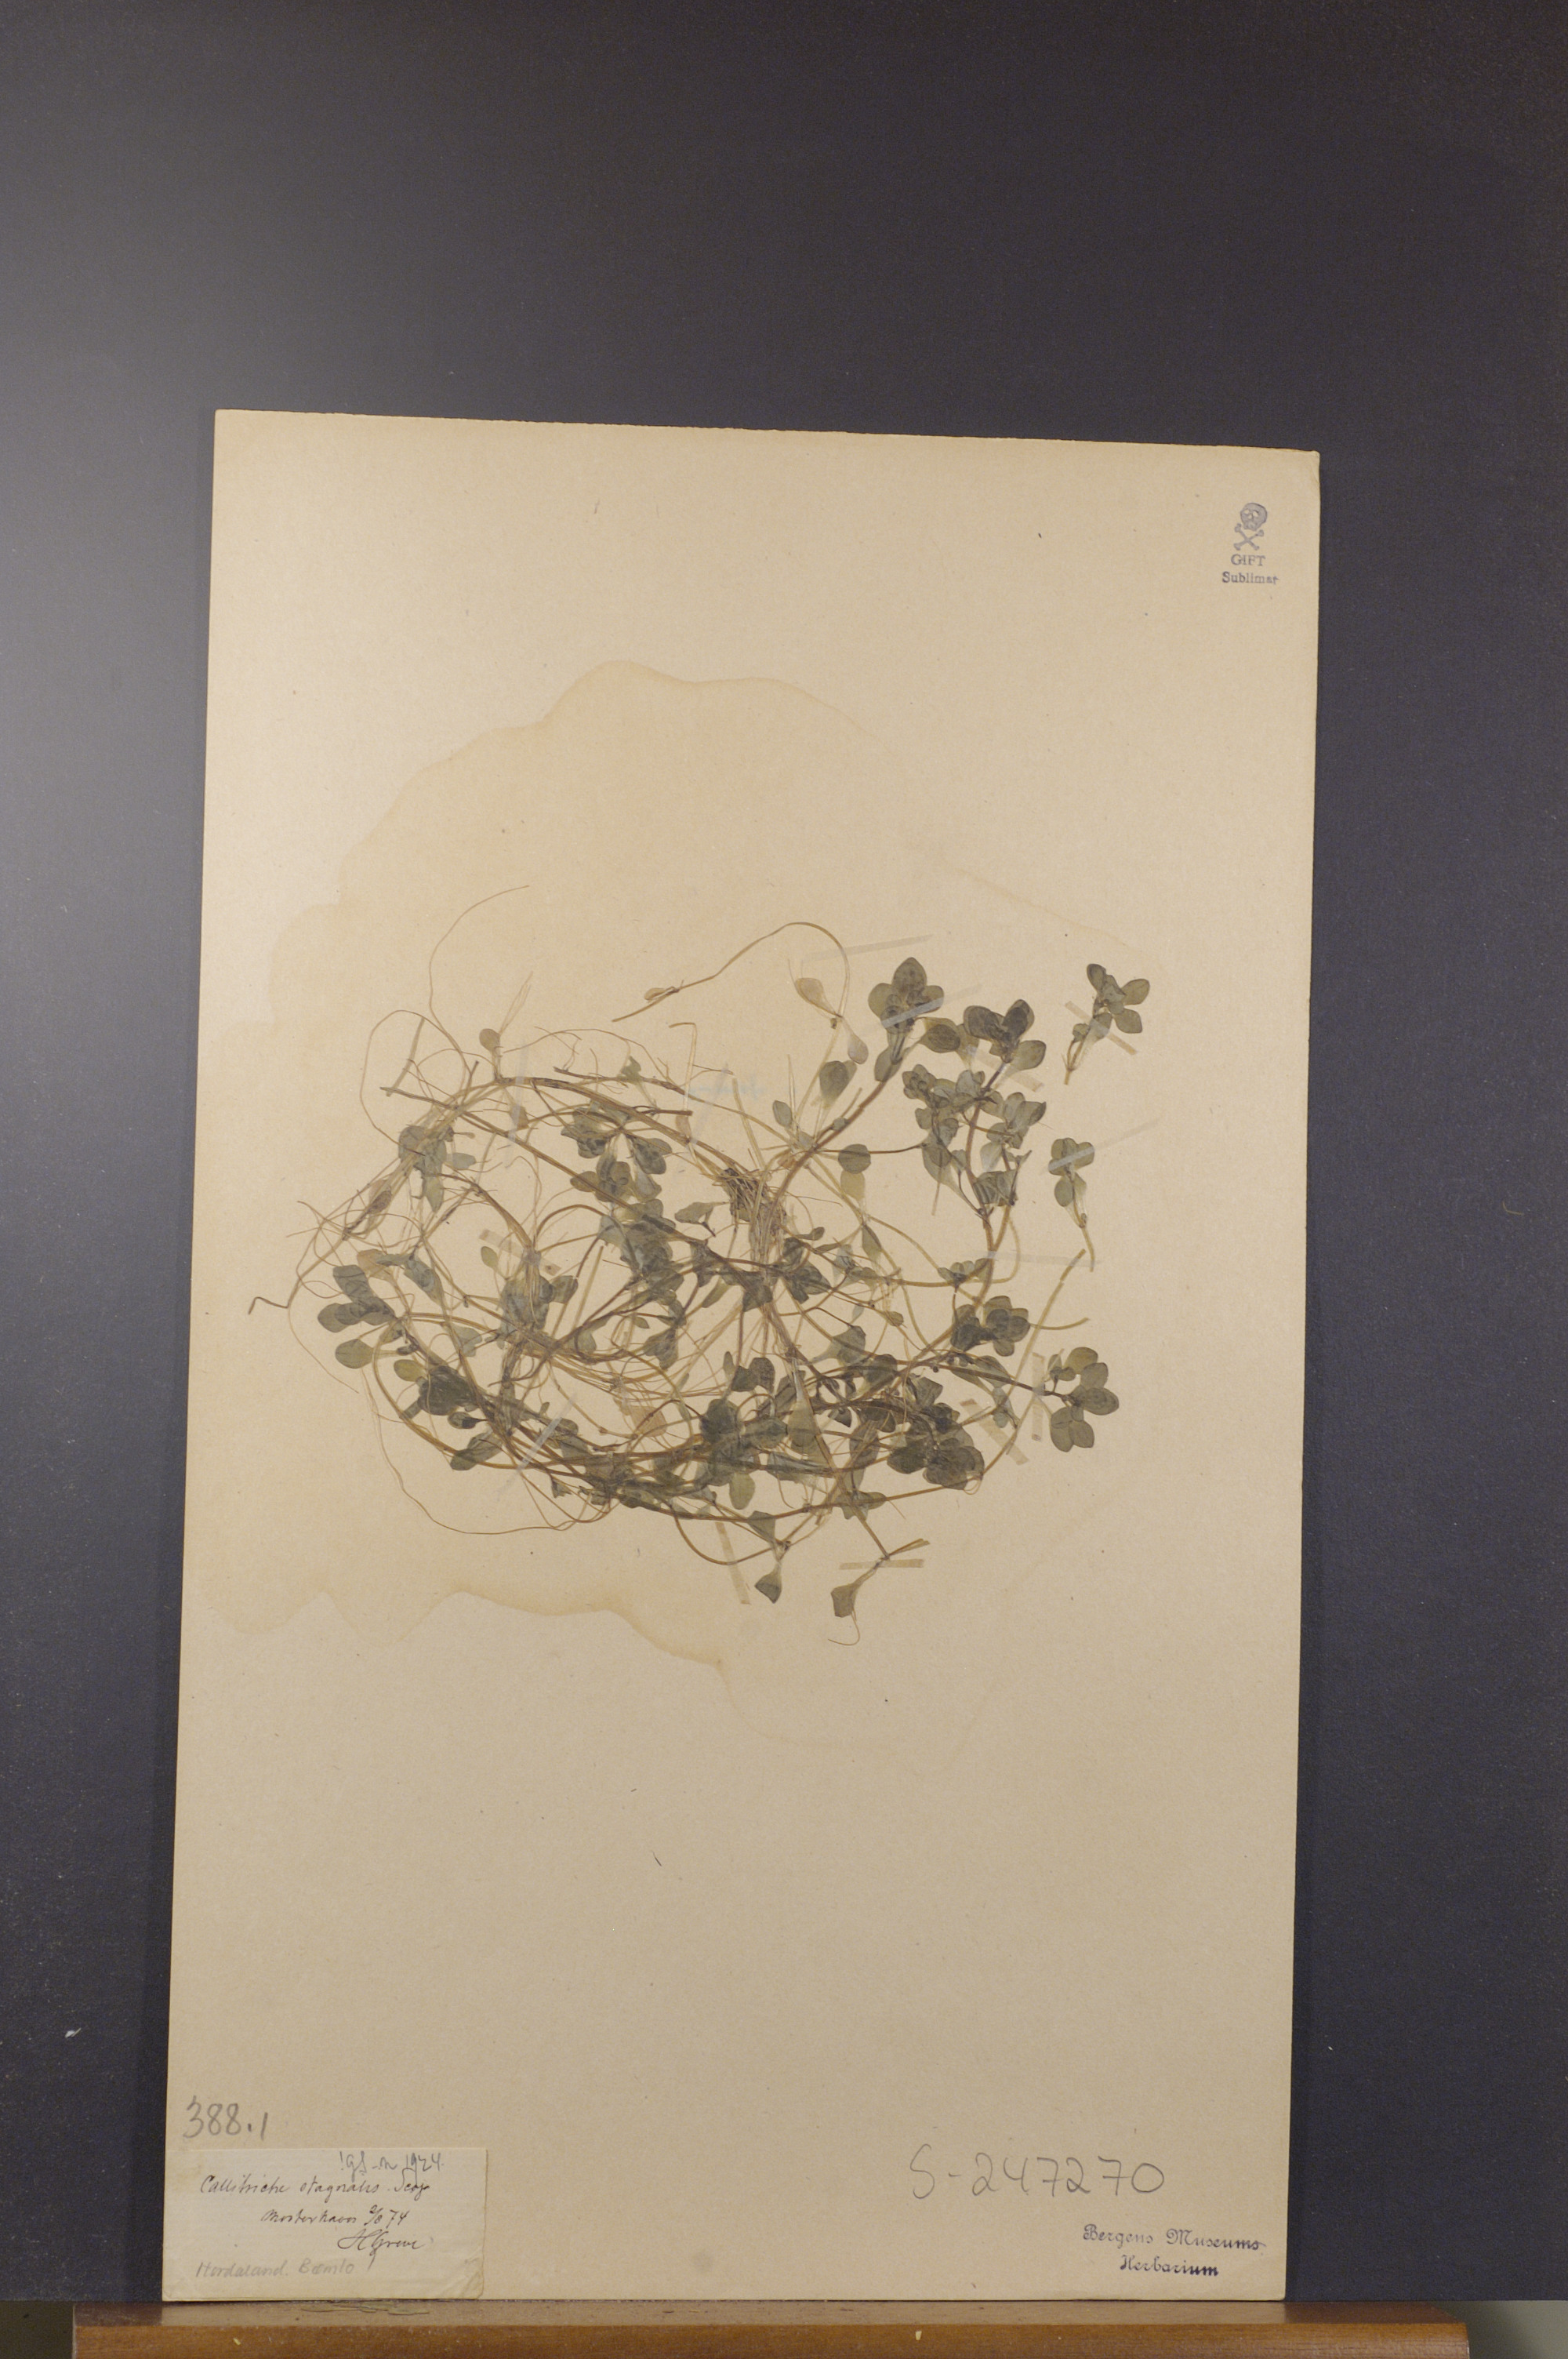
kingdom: Plantae
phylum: Tracheophyta
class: Magnoliopsida
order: Lamiales
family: Plantaginaceae
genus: Callitriche
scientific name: Callitriche stagnalis
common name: Common water-starwort
